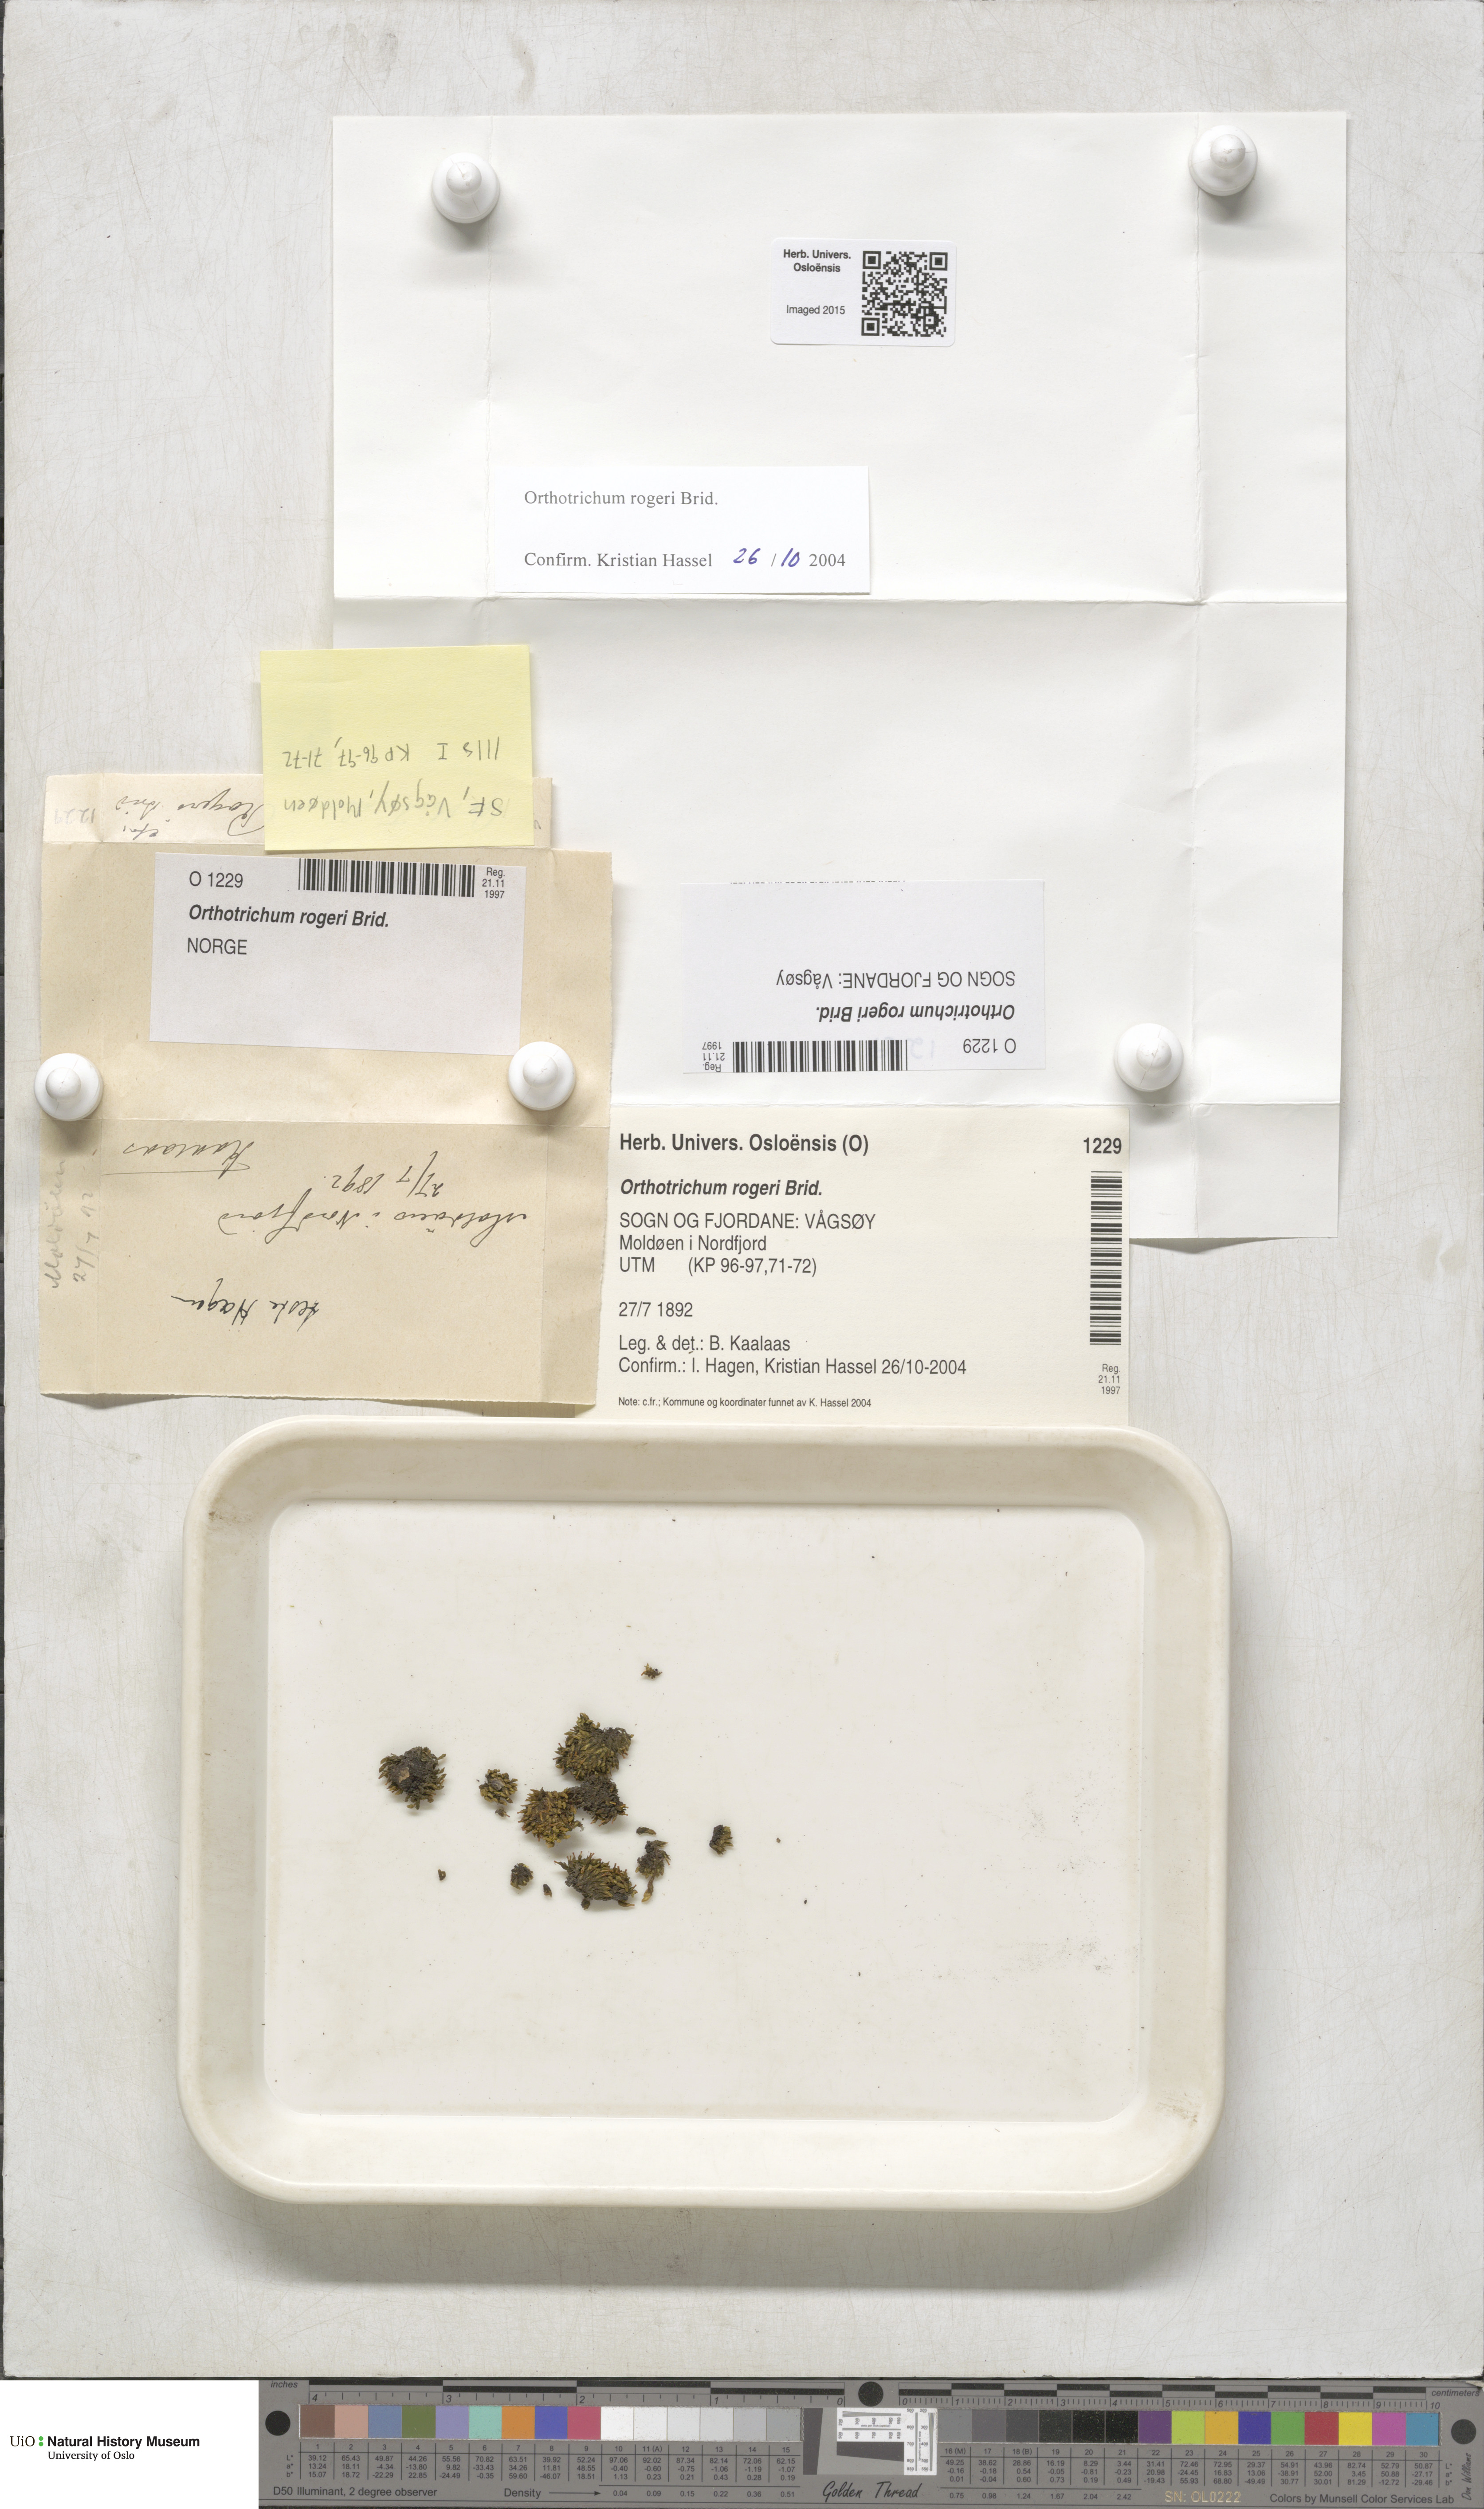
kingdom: Plantae
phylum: Bryophyta
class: Bryopsida
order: Orthotrichales
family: Orthotrichaceae
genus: Orthotrichum
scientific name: Orthotrichum rogeri
